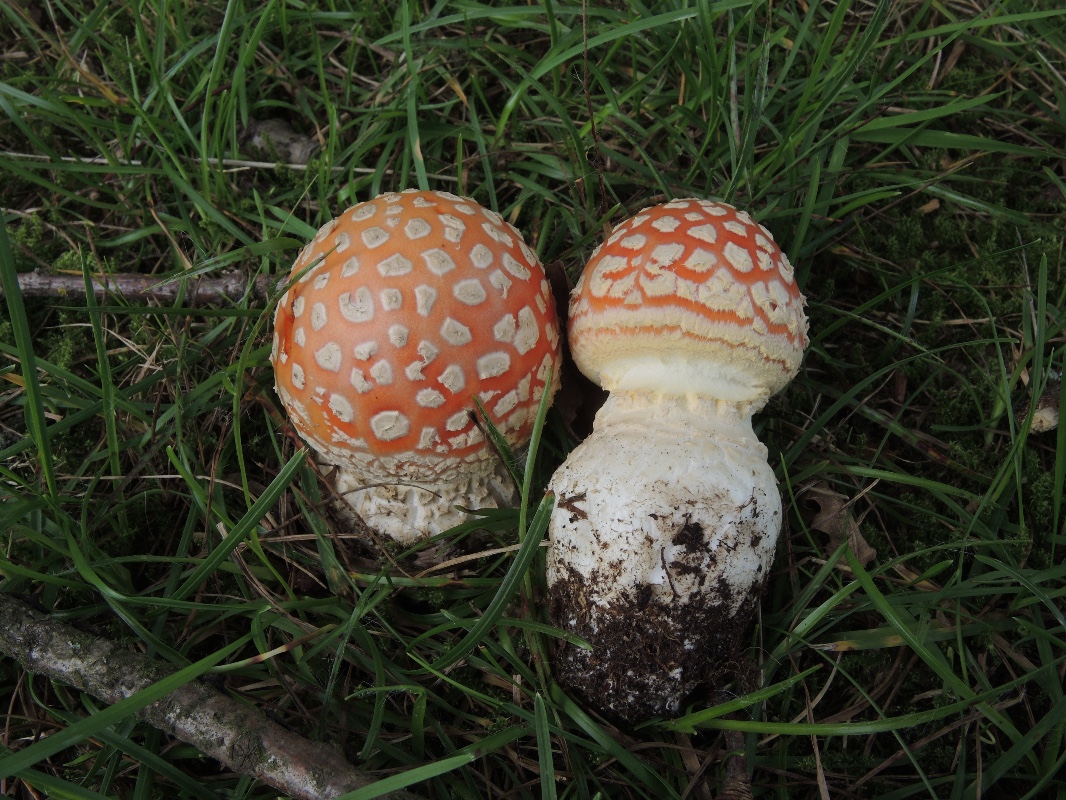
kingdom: Fungi
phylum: Basidiomycota
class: Agaricomycetes
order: Agaricales
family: Amanitaceae
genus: Amanita
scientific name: Amanita muscaria
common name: rød fluesvamp
